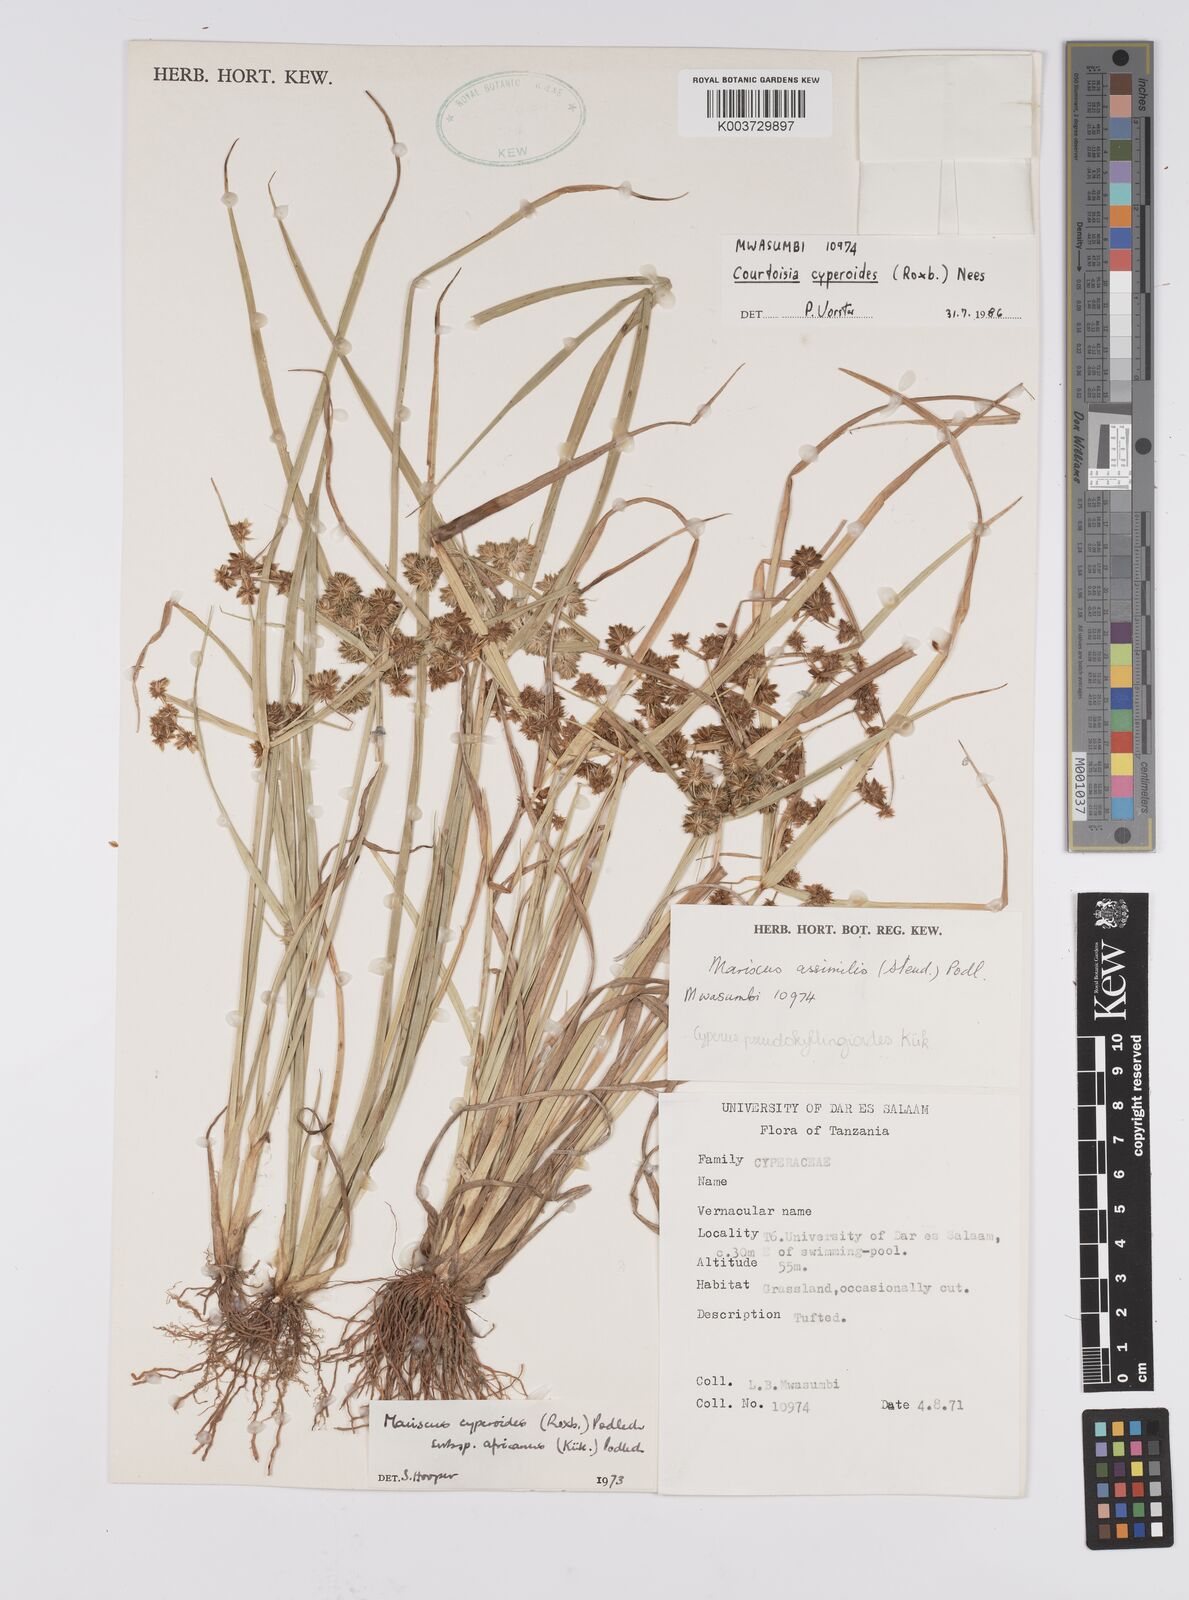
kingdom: Plantae
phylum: Tracheophyta
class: Liliopsida
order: Poales
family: Cyperaceae
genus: Cyperus
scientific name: Cyperus cyperoides
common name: Pacific island flat sedge
